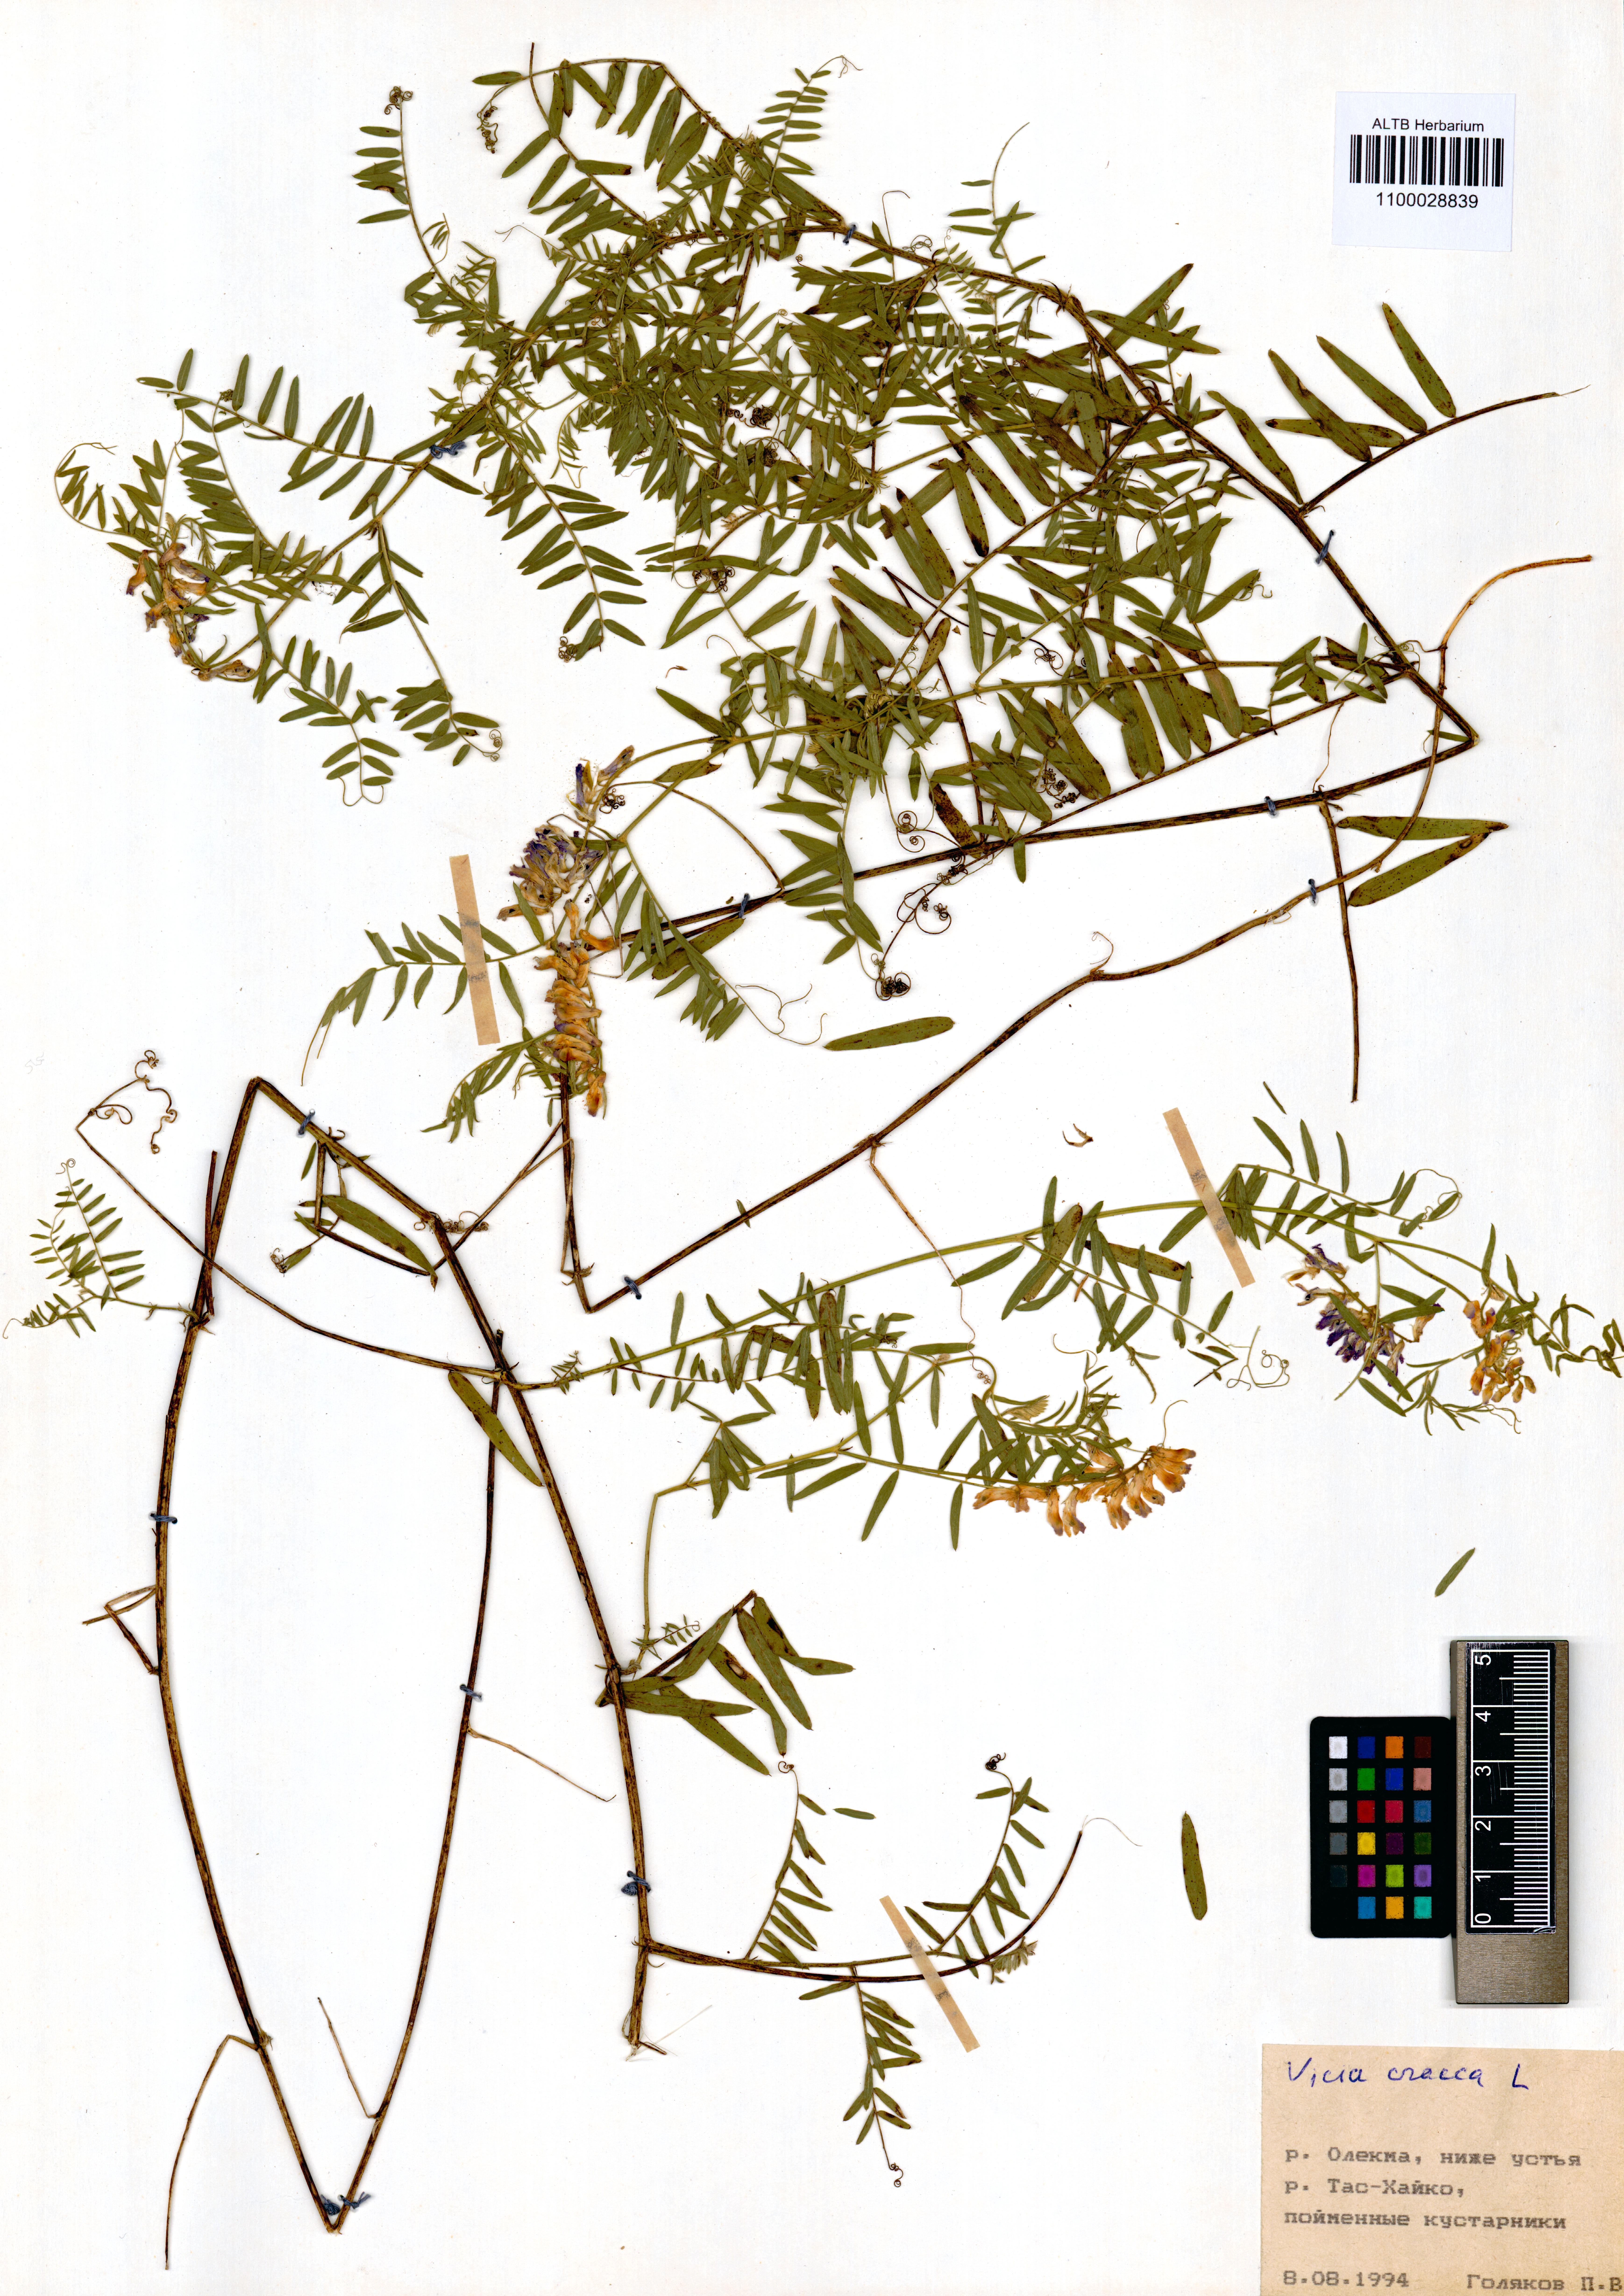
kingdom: Plantae
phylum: Tracheophyta
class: Magnoliopsida
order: Fabales
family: Fabaceae
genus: Vicia
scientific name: Vicia cracca
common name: Bird vetch
